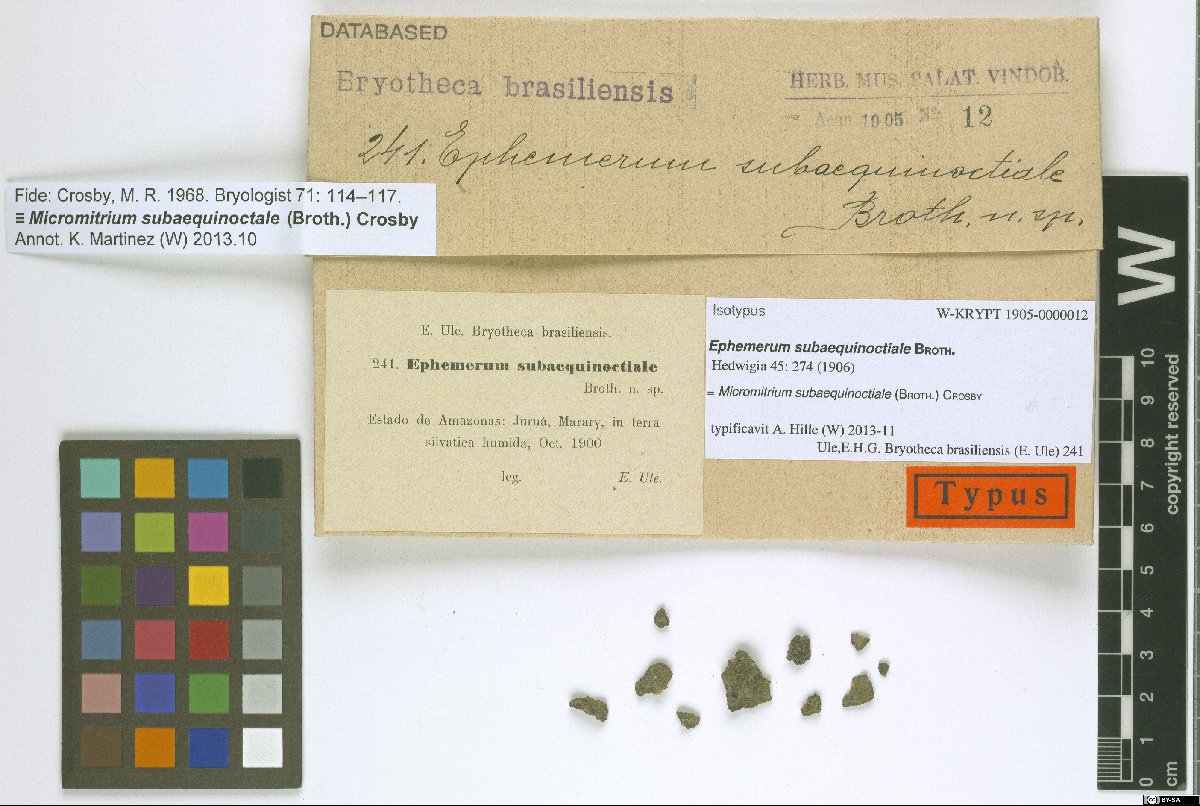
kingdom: Plantae
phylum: Bryophyta
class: Bryopsida
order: Dicranales
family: Micromitriaceae
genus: Micromitrium
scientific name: Micromitrium lacustre
